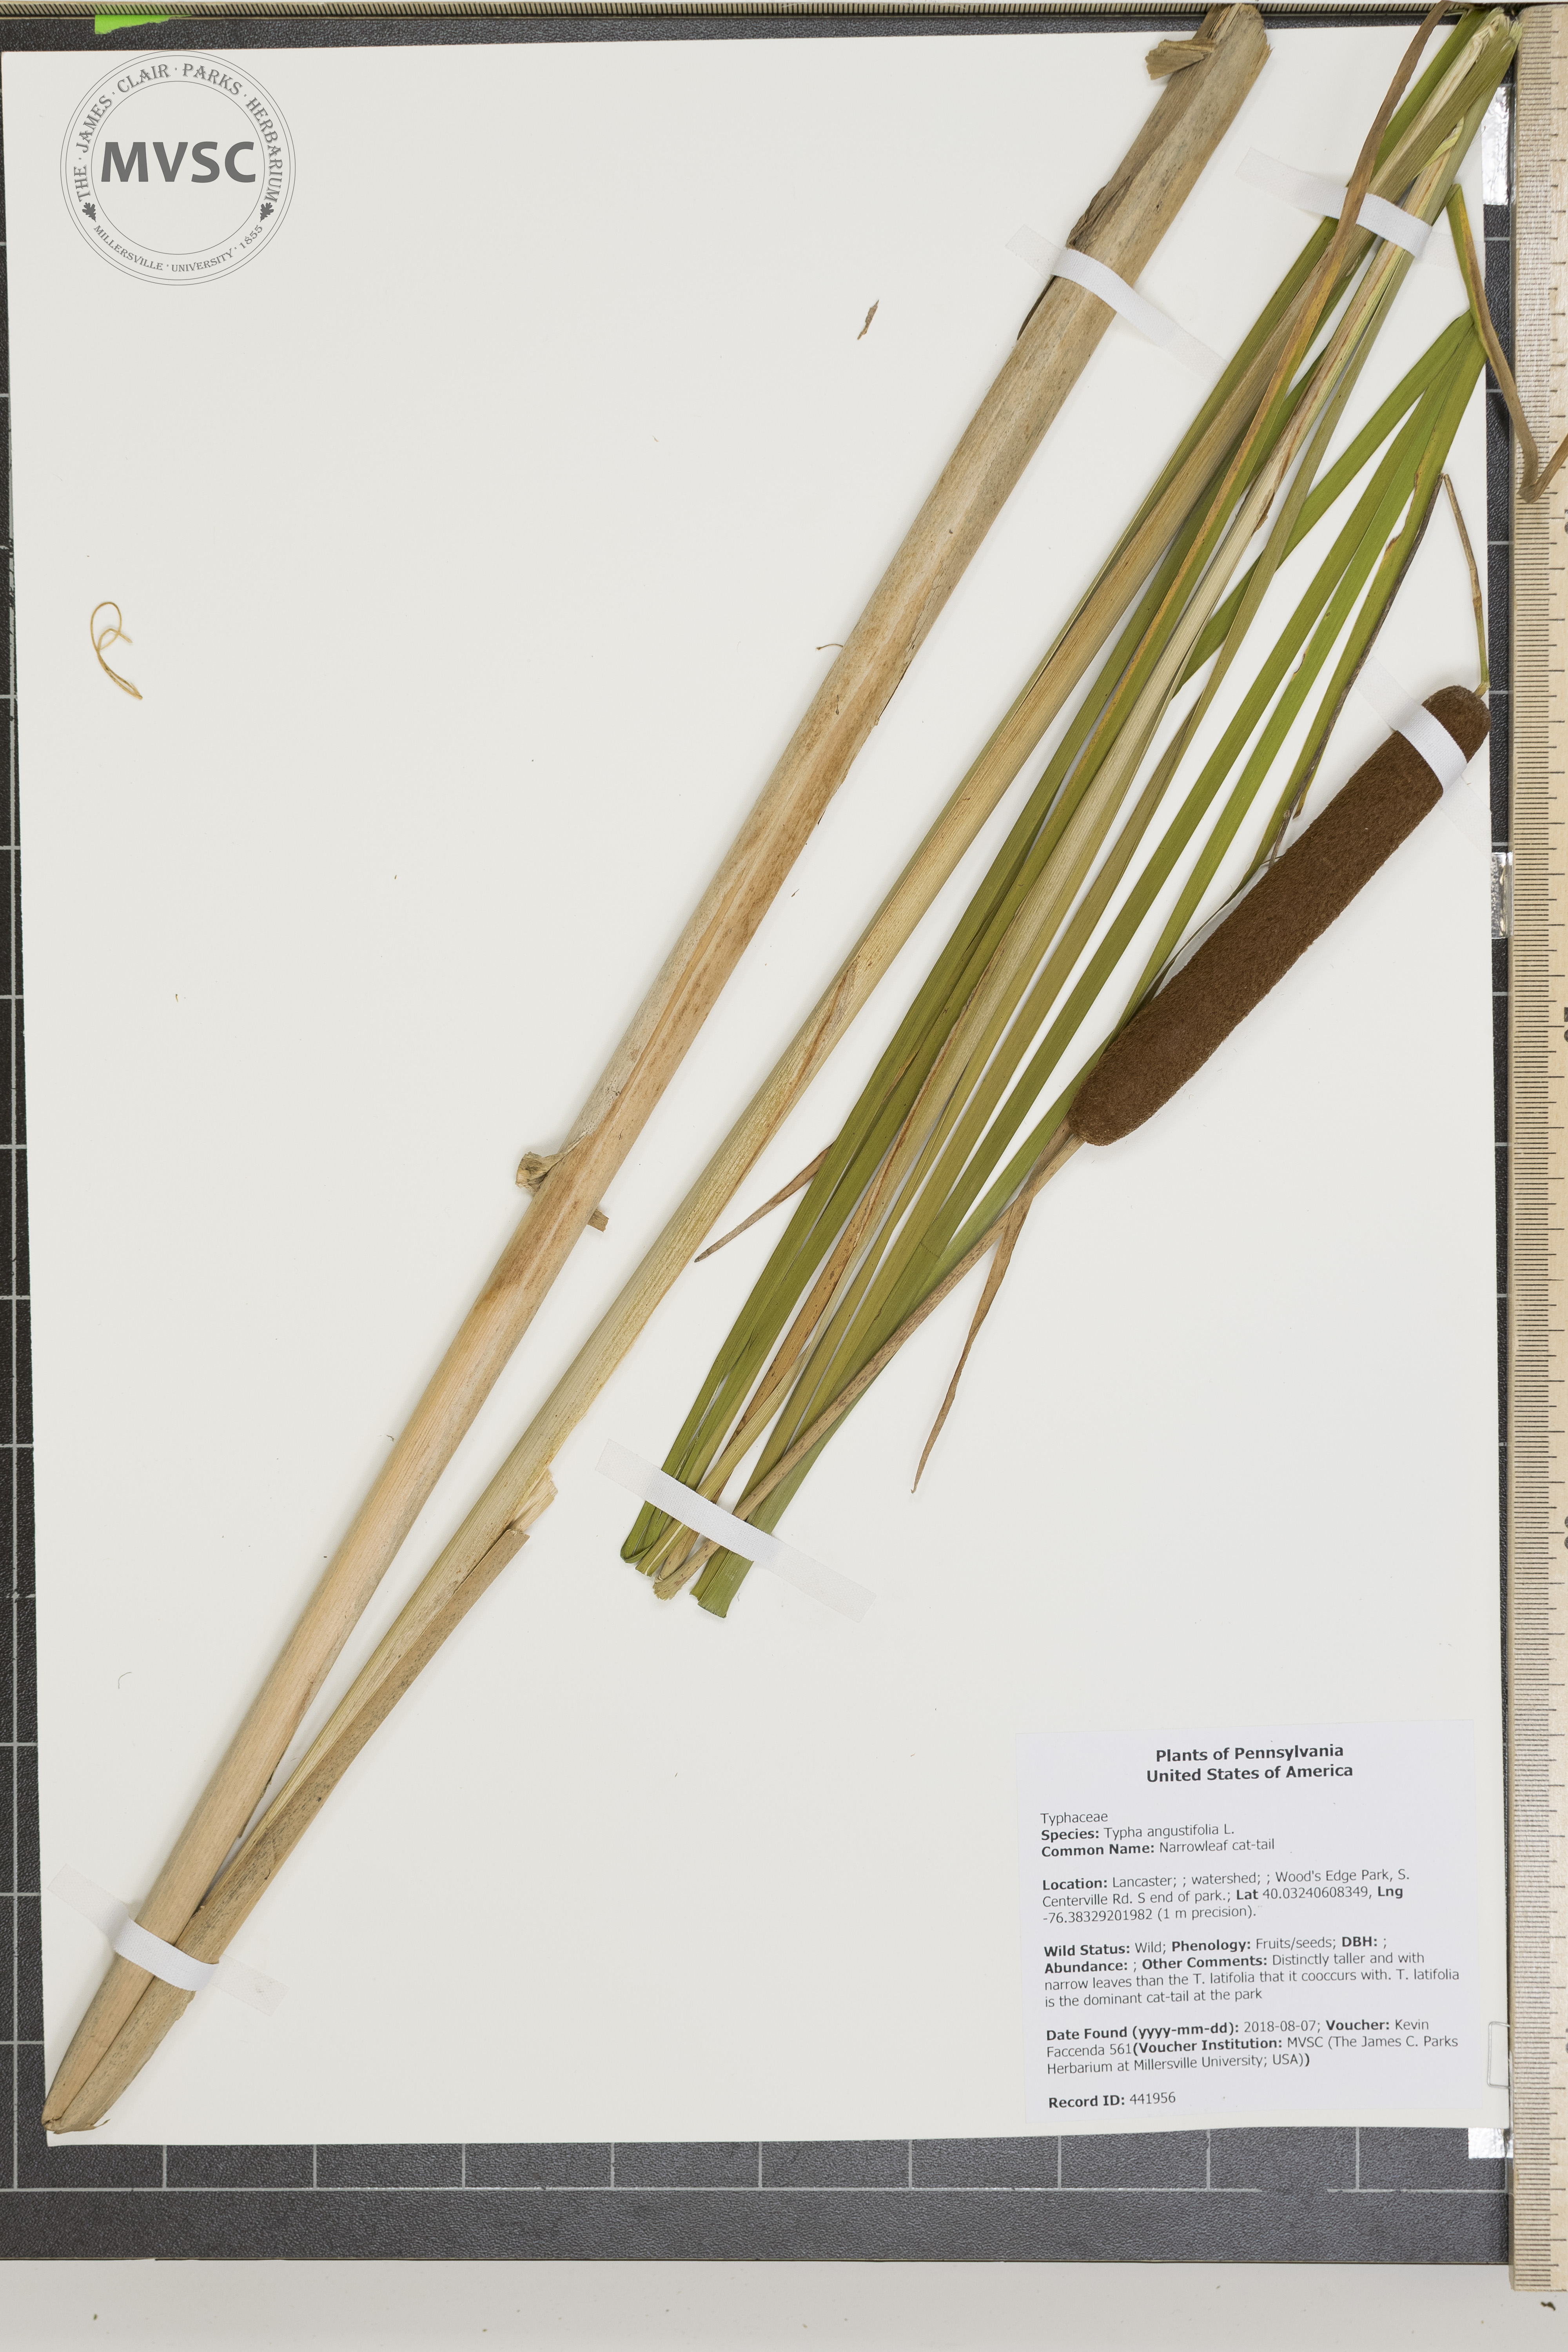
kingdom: Plantae
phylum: Tracheophyta
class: Liliopsida
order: Poales
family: Typhaceae
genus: Typha
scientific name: Typha angustifolia
